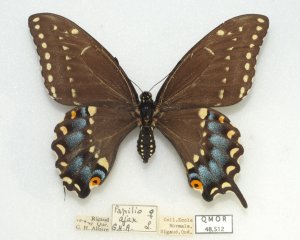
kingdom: Animalia
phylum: Arthropoda
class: Insecta
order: Lepidoptera
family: Papilionidae
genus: Papilio
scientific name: Papilio polyxenes
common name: Black Swallowtail
